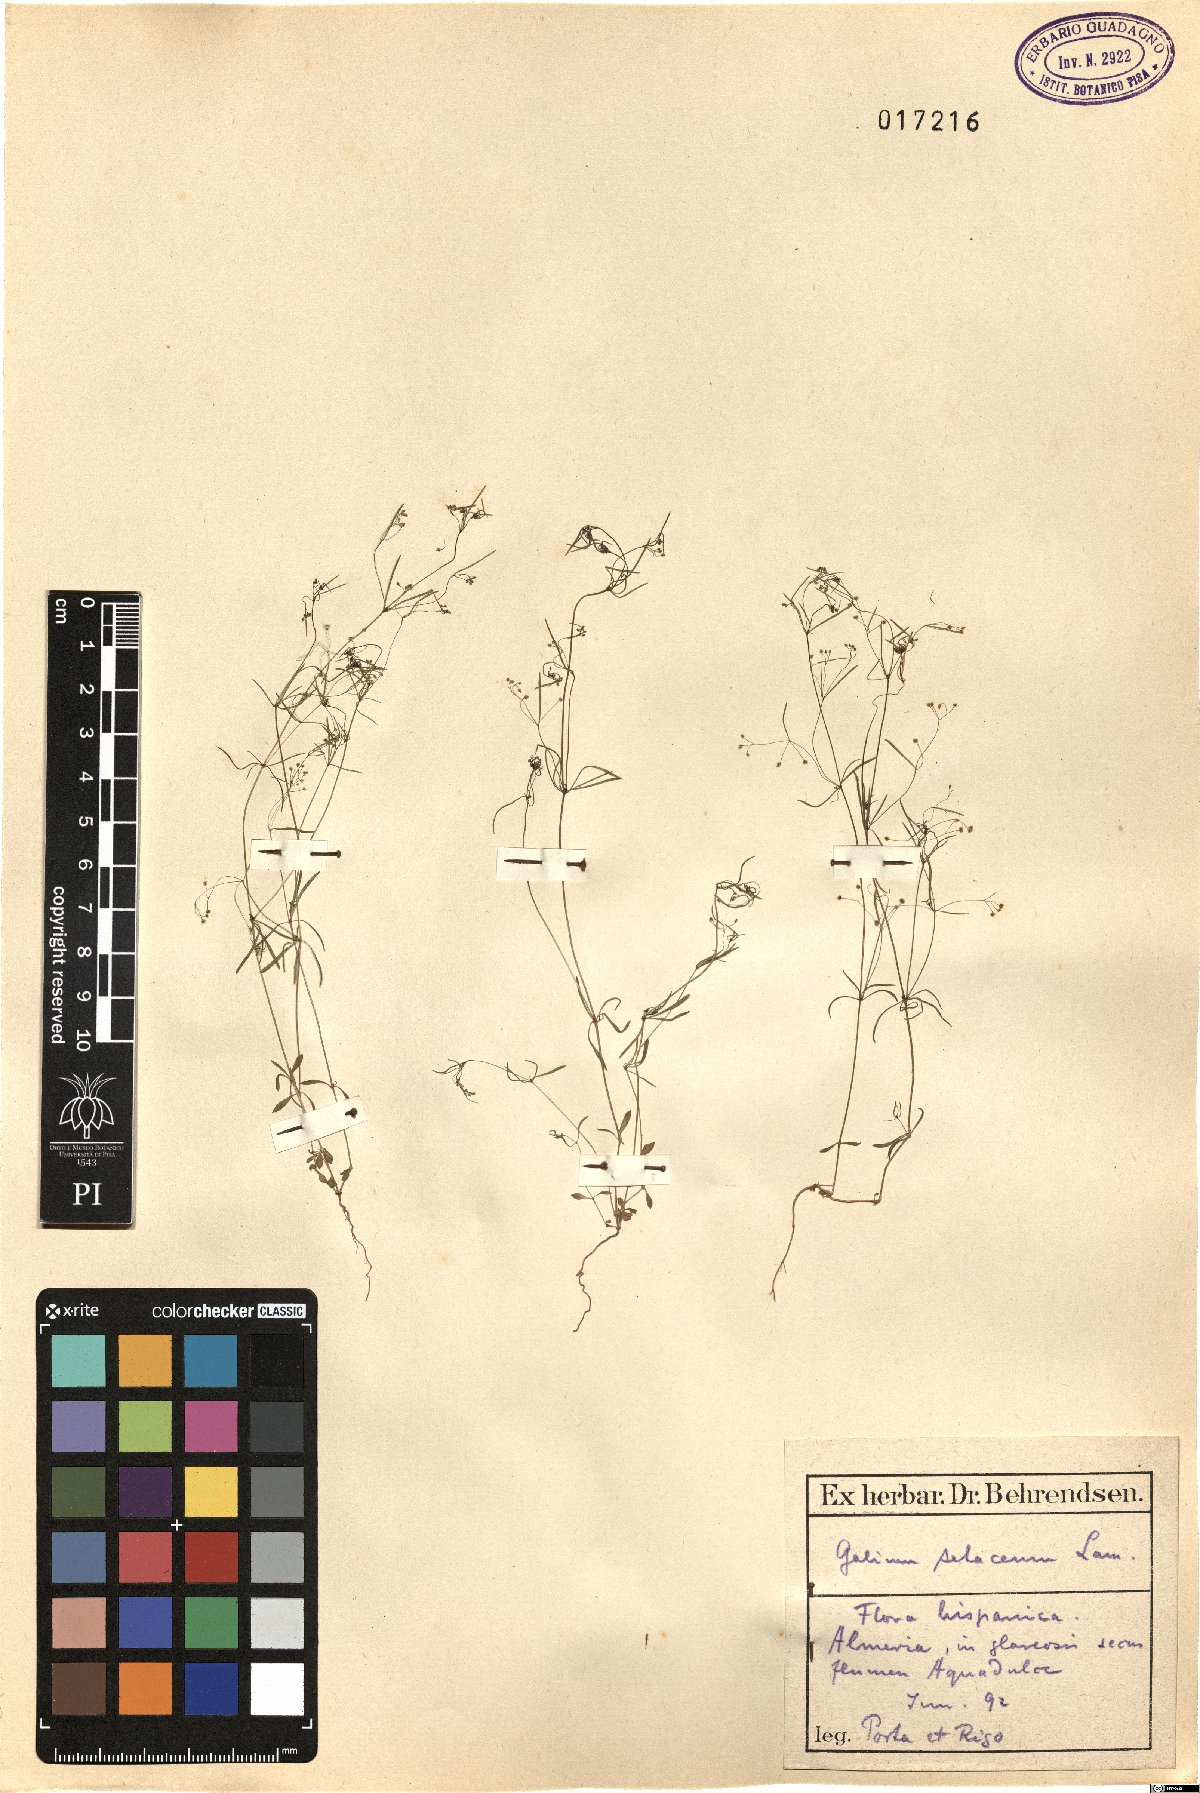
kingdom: Plantae
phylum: Tracheophyta
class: Magnoliopsida
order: Gentianales
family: Rubiaceae
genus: Galium
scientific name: Galium setaceum
